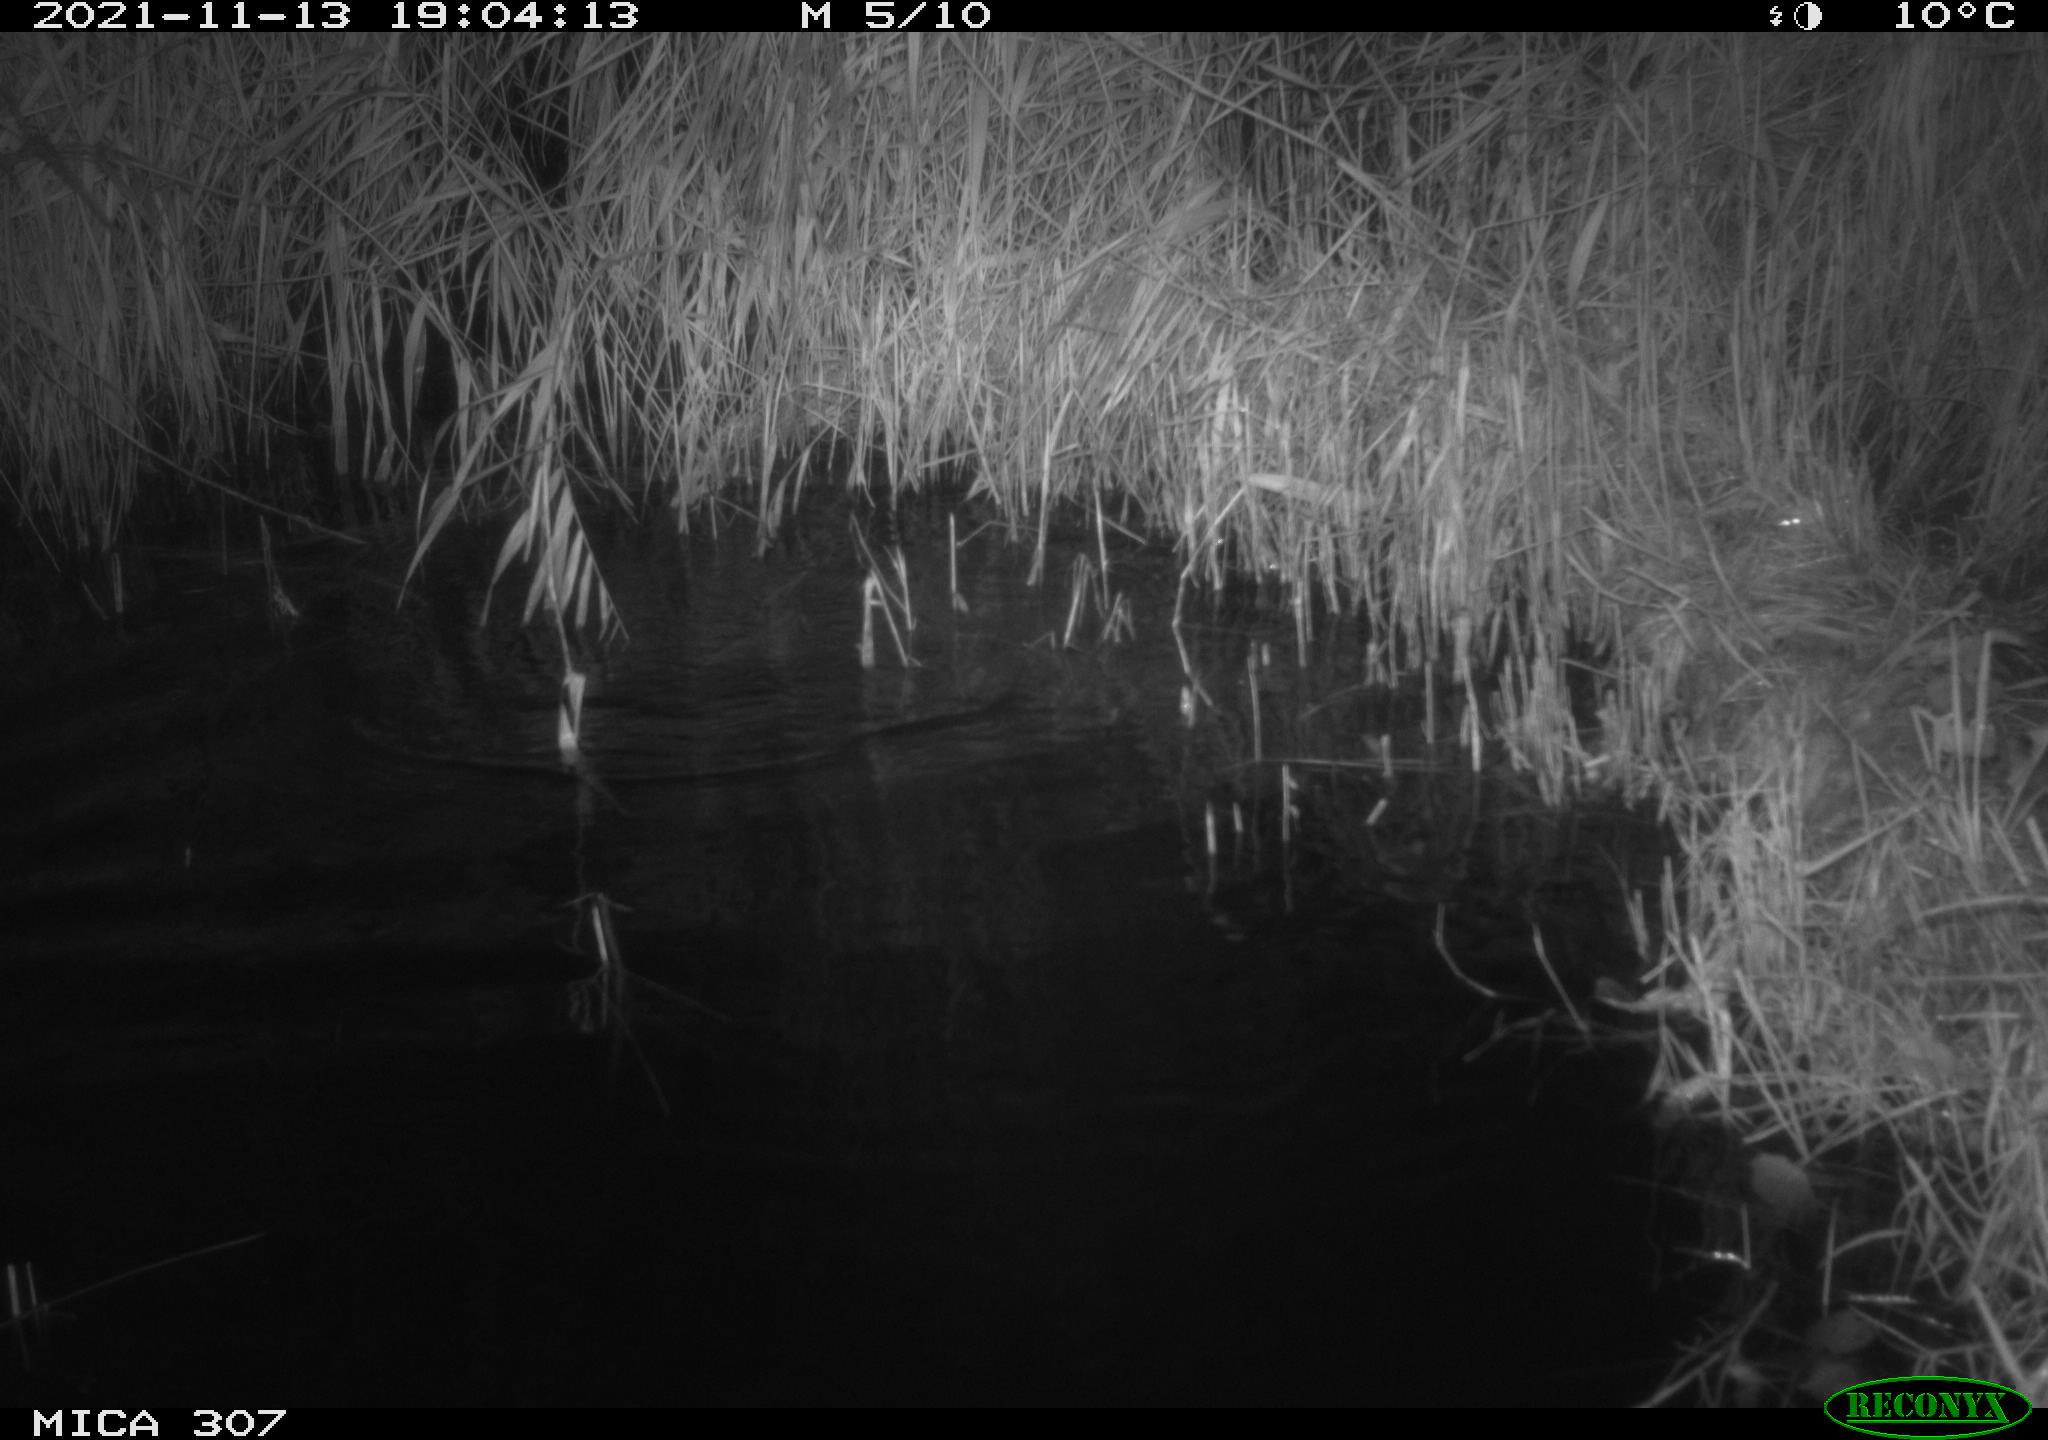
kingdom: Animalia
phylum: Chordata
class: Mammalia
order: Rodentia
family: Cricetidae
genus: Ondatra
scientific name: Ondatra zibethicus
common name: Muskrat
